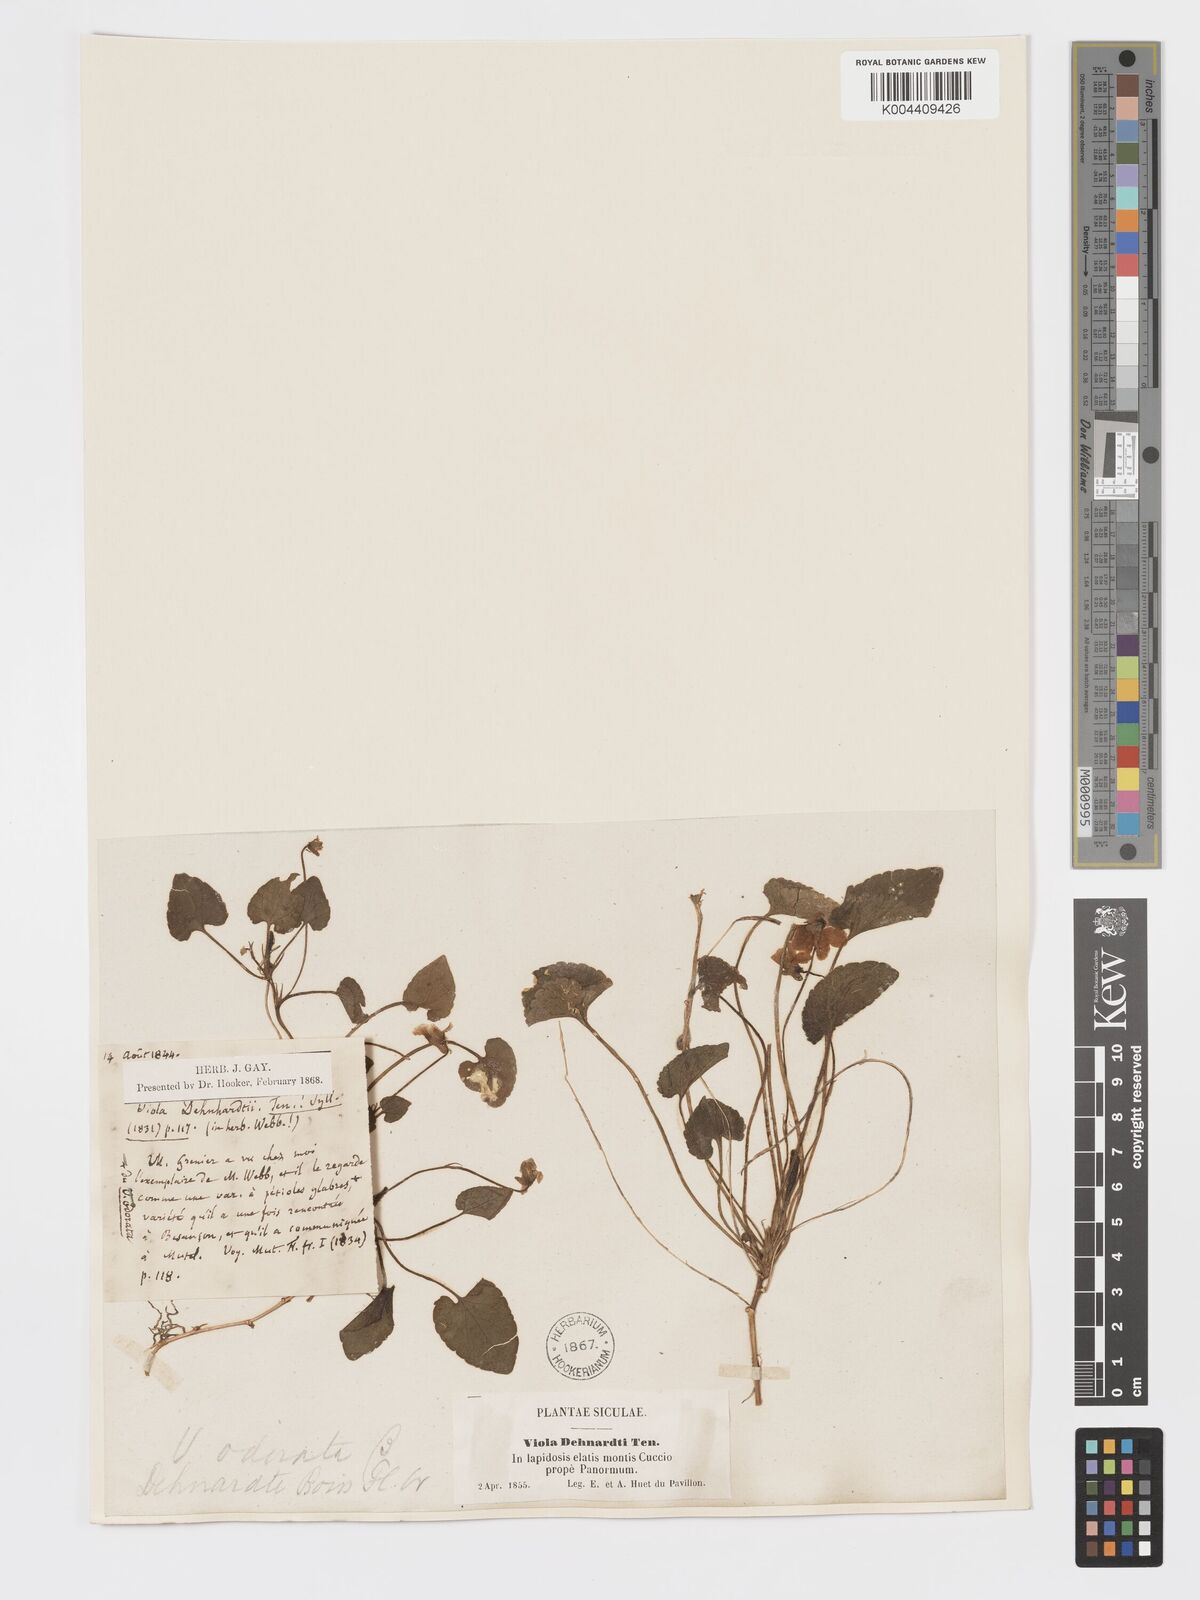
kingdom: Plantae
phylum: Tracheophyta
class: Magnoliopsida
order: Malpighiales
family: Violaceae
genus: Viola
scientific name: Viola alba
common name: White violet
